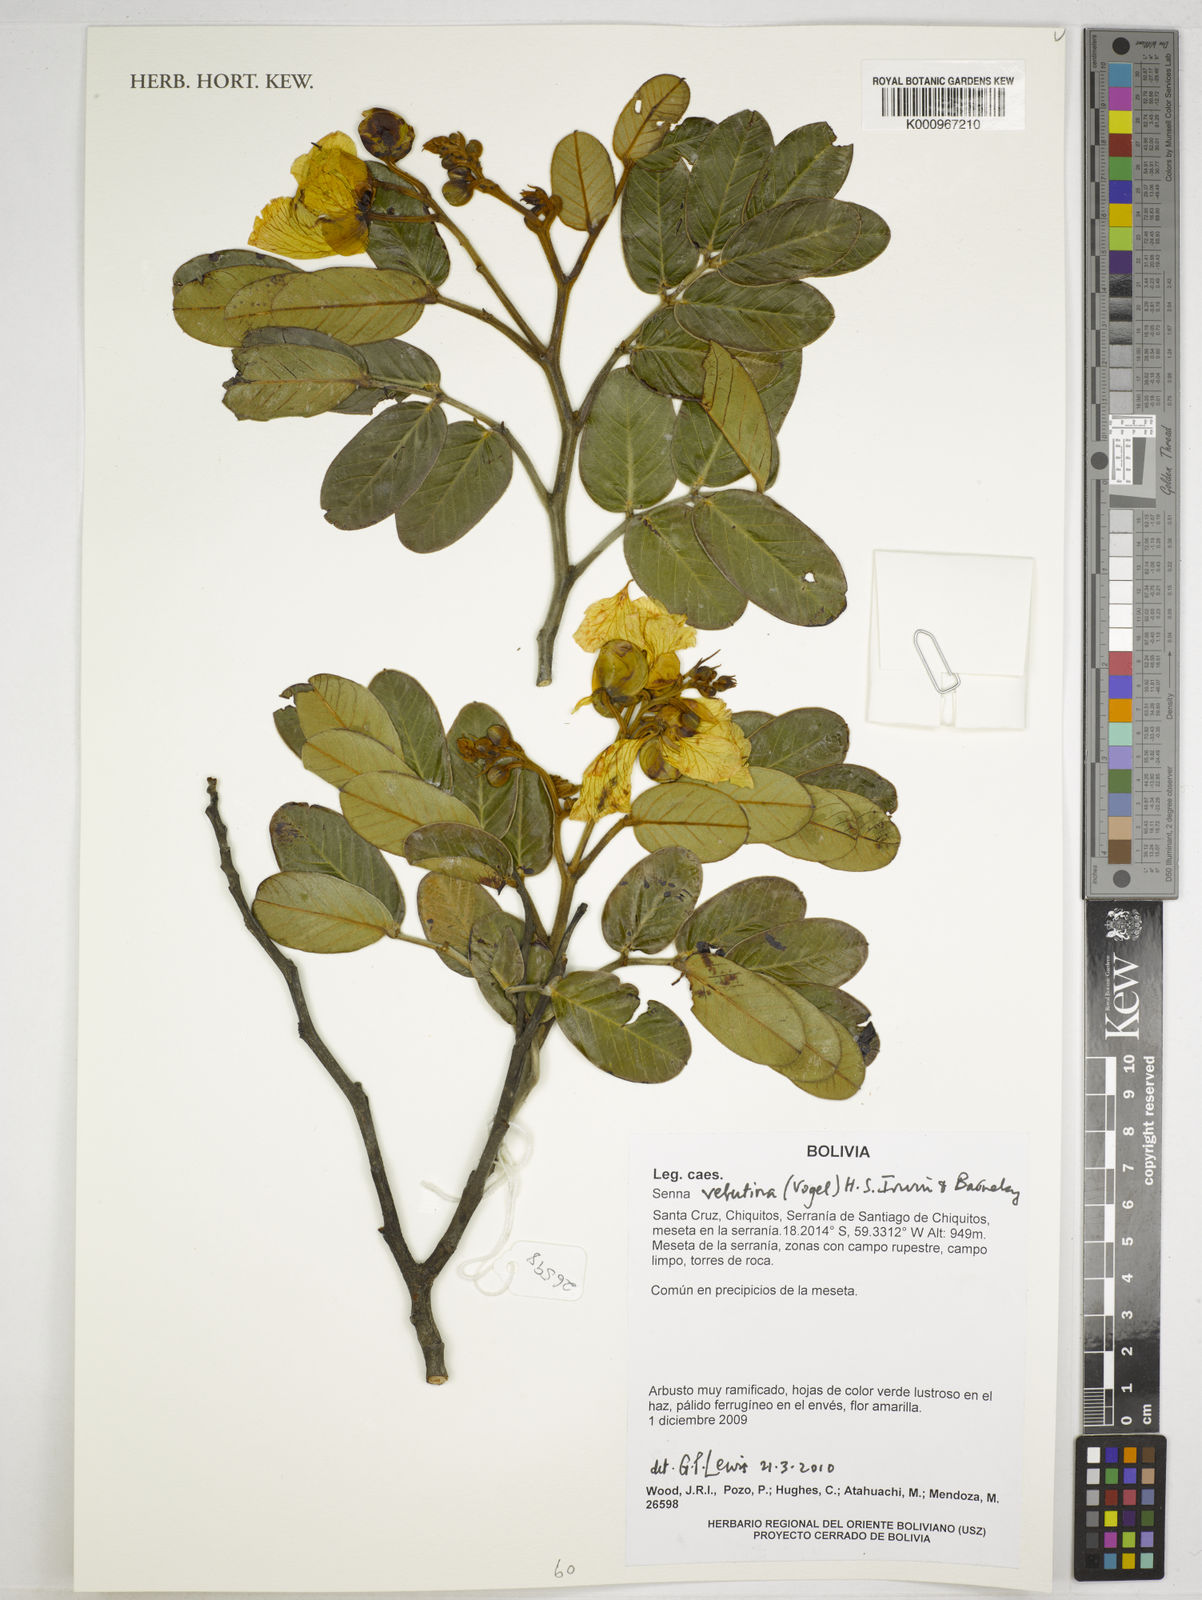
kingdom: Plantae
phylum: Tracheophyta
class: Magnoliopsida
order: Fabales
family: Fabaceae
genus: Senna
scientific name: Senna velutina
